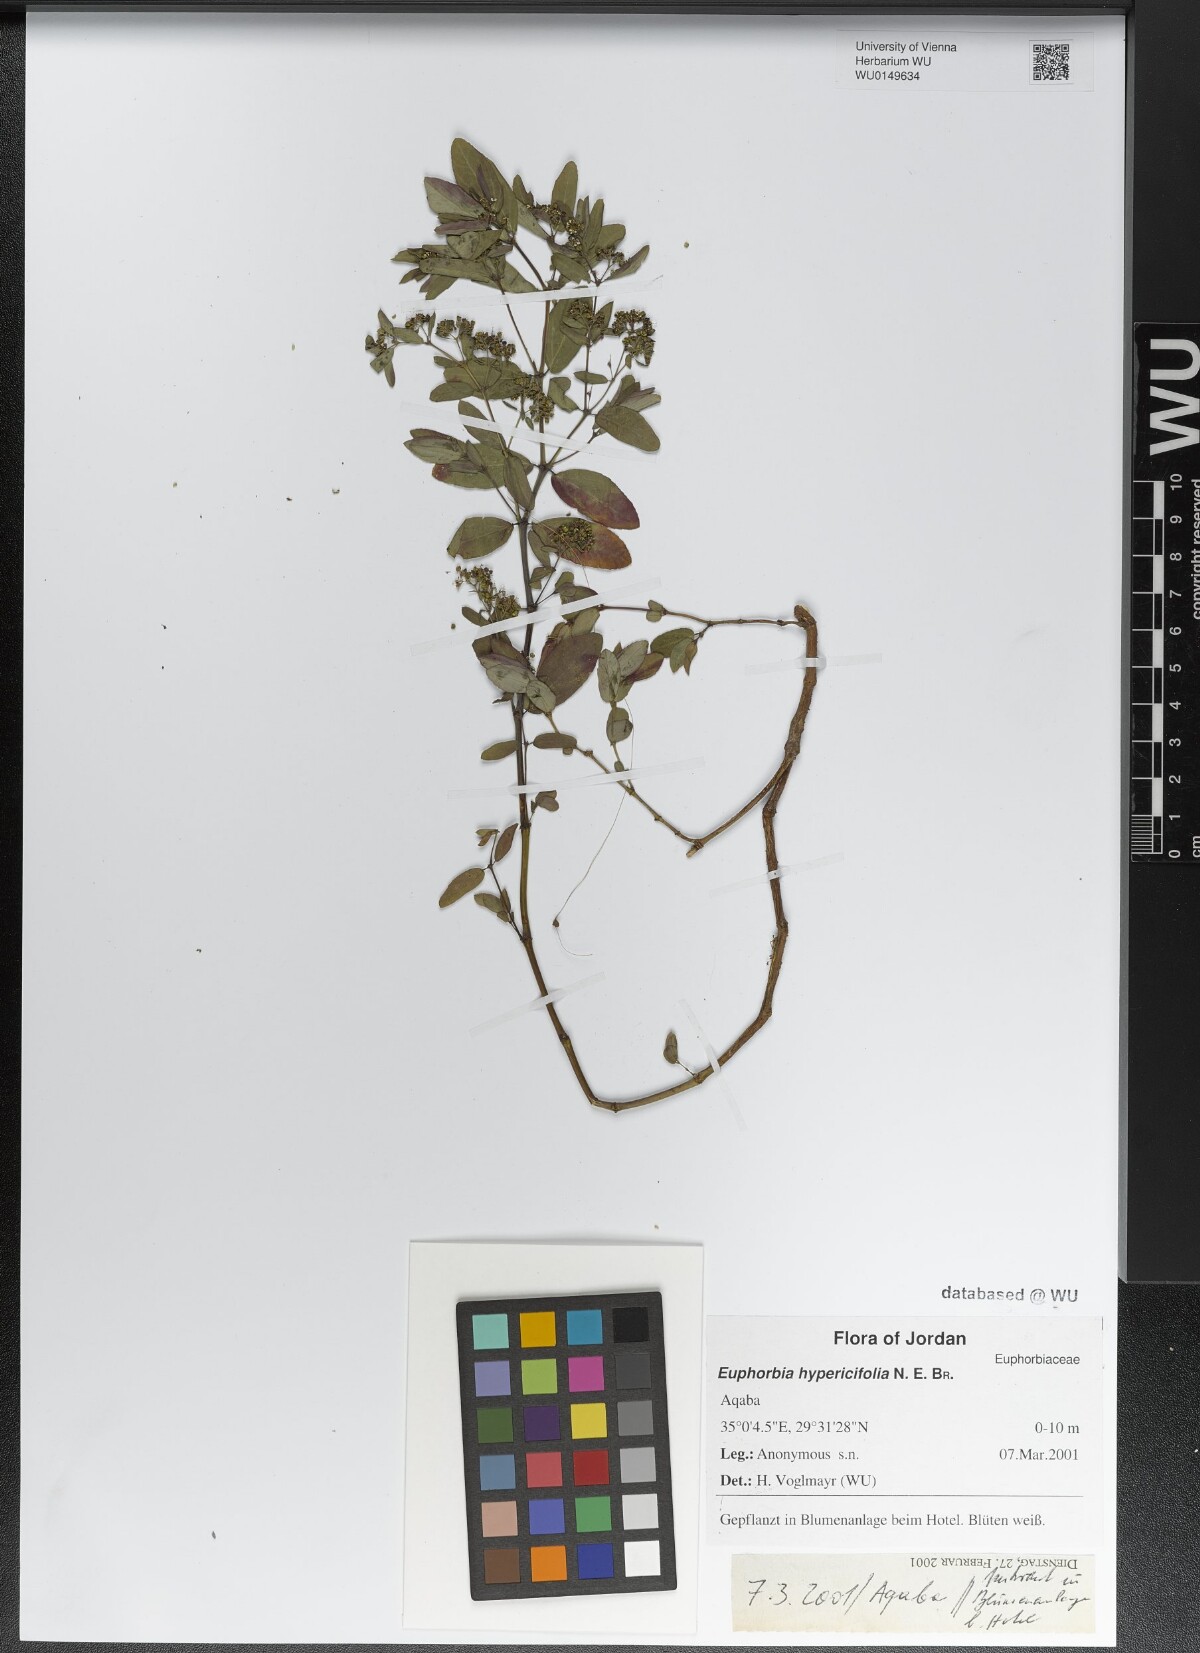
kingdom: Plantae
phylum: Tracheophyta
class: Magnoliopsida
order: Malpighiales
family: Euphorbiaceae
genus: Euphorbia
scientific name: Euphorbia hypericifolia
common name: Graceful sandmat
